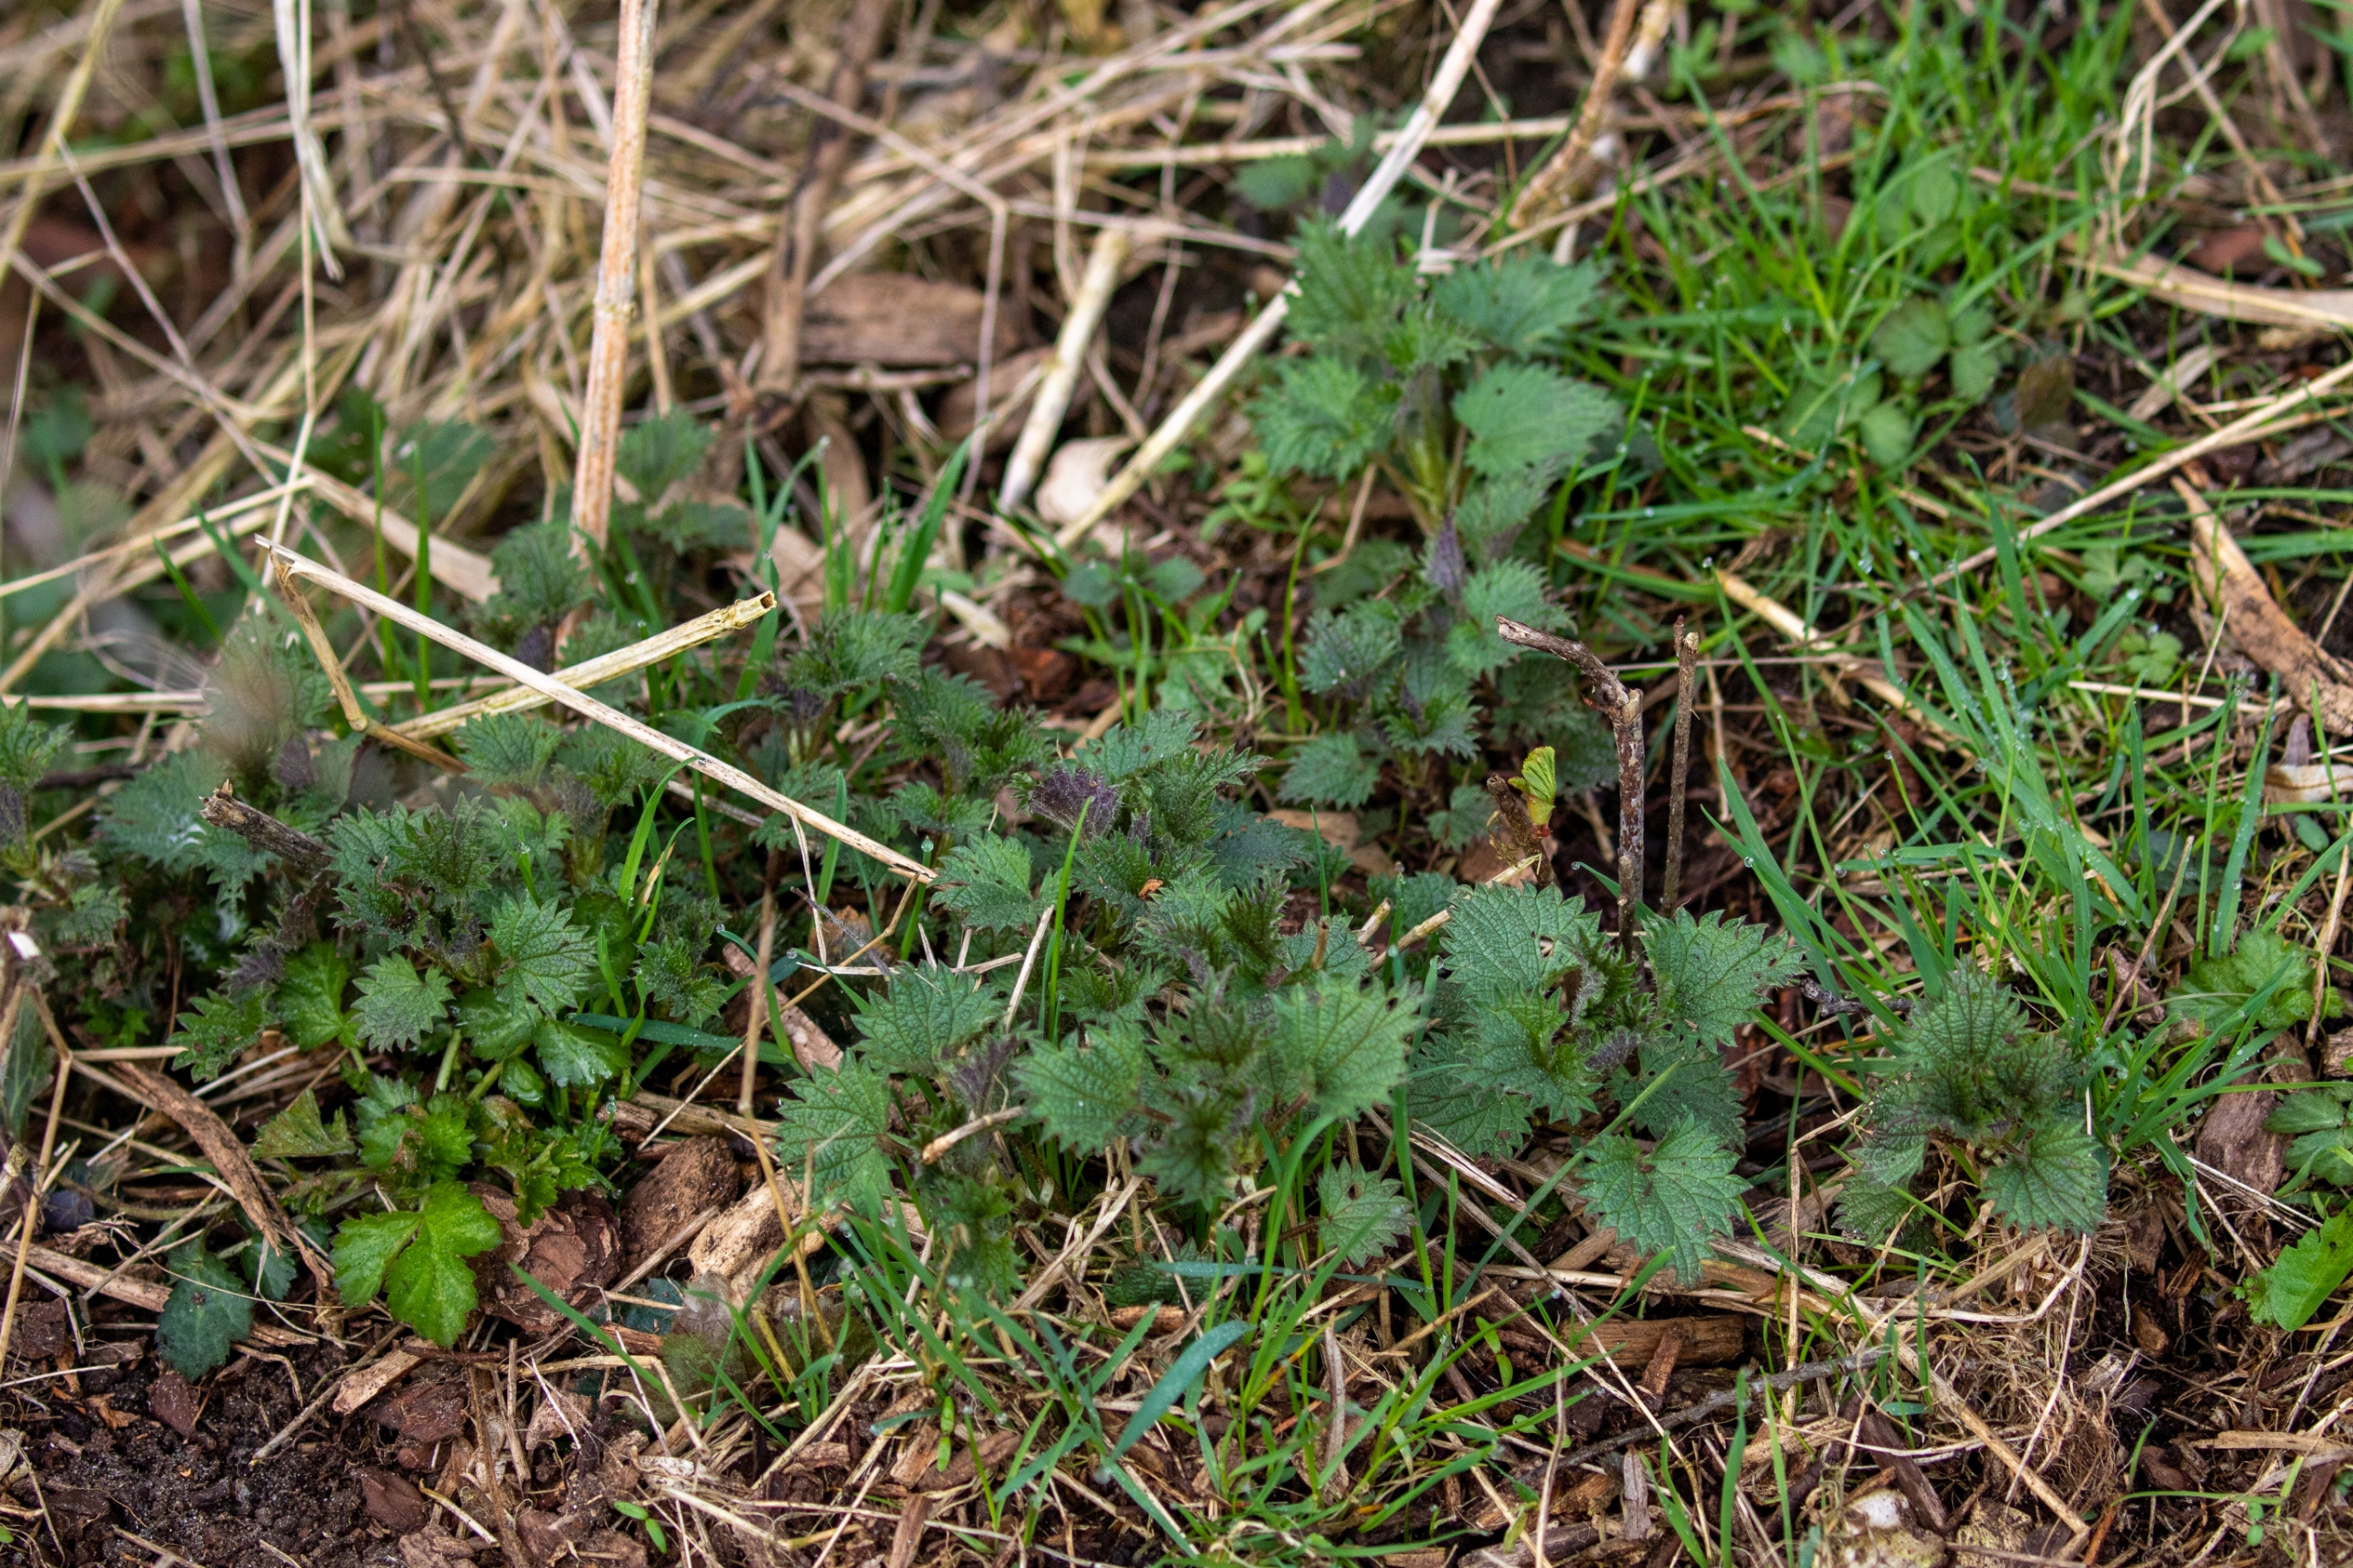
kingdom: Plantae
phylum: Tracheophyta
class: Magnoliopsida
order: Rosales
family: Urticaceae
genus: Urtica
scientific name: Urtica dioica
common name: Stor nælde
